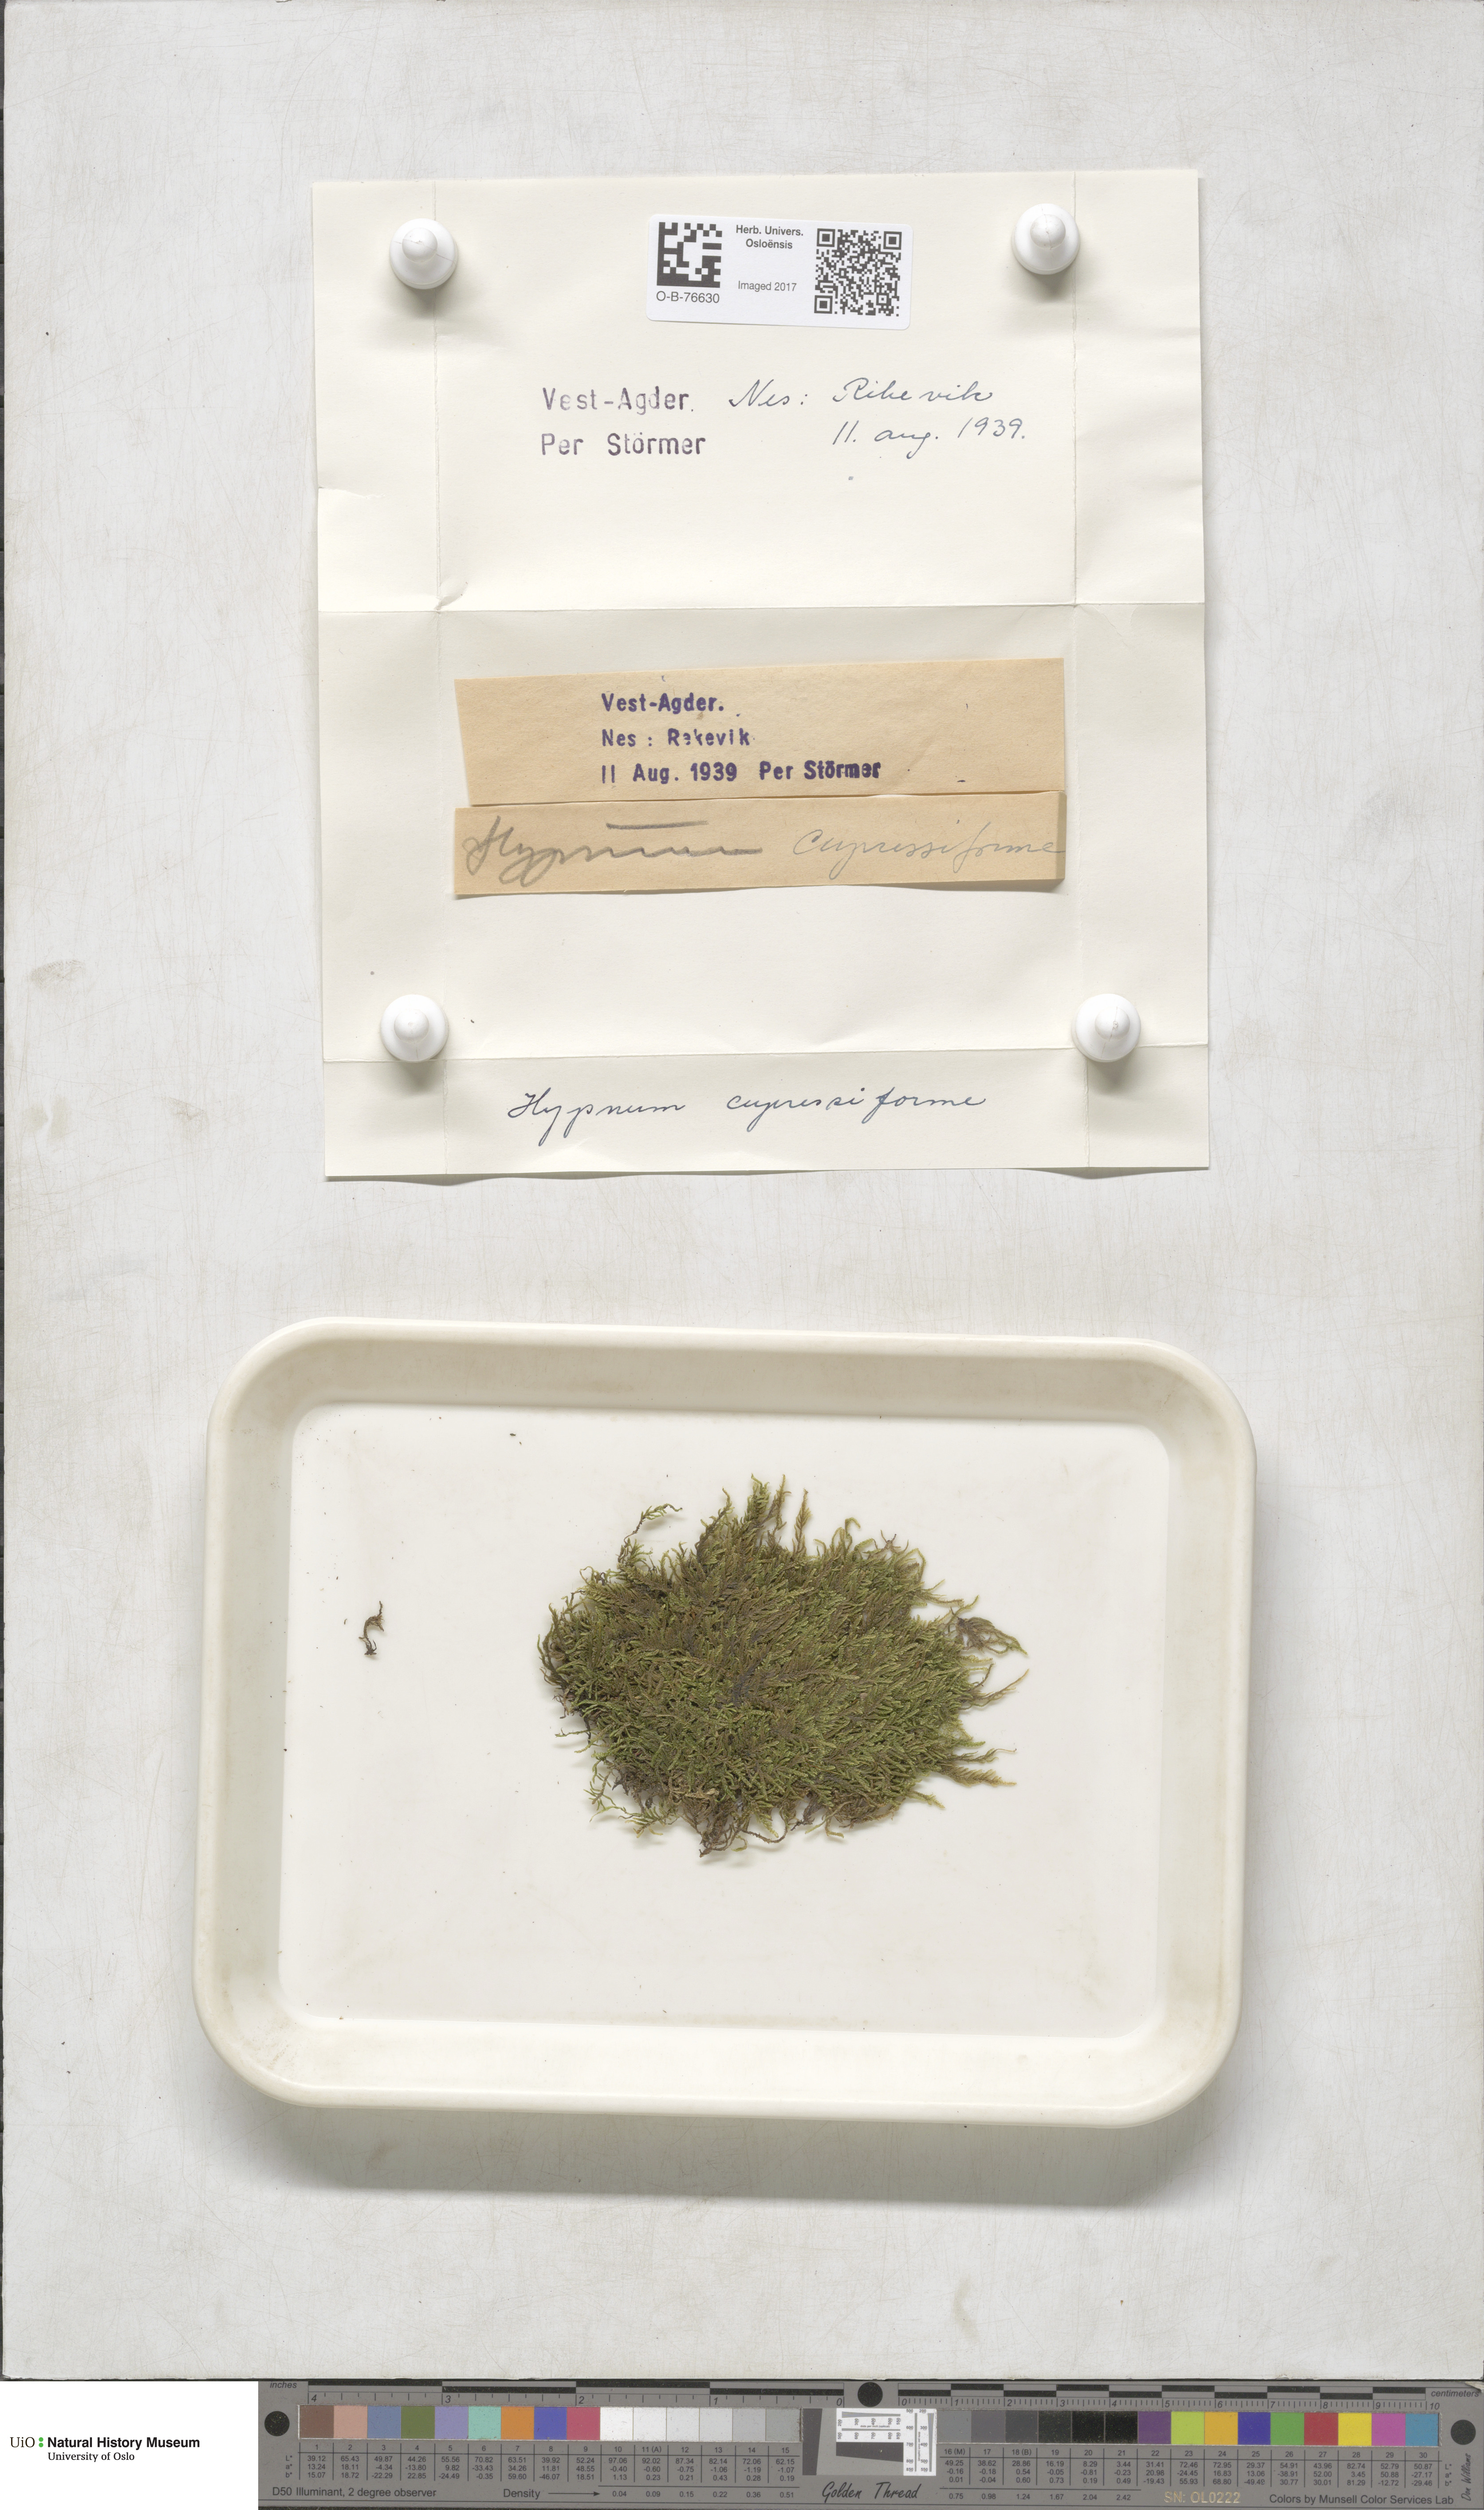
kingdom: Plantae
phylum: Bryophyta
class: Bryopsida
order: Hypnales
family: Hypnaceae
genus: Hypnum
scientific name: Hypnum cupressiforme
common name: Cypress-leaved plait-moss
